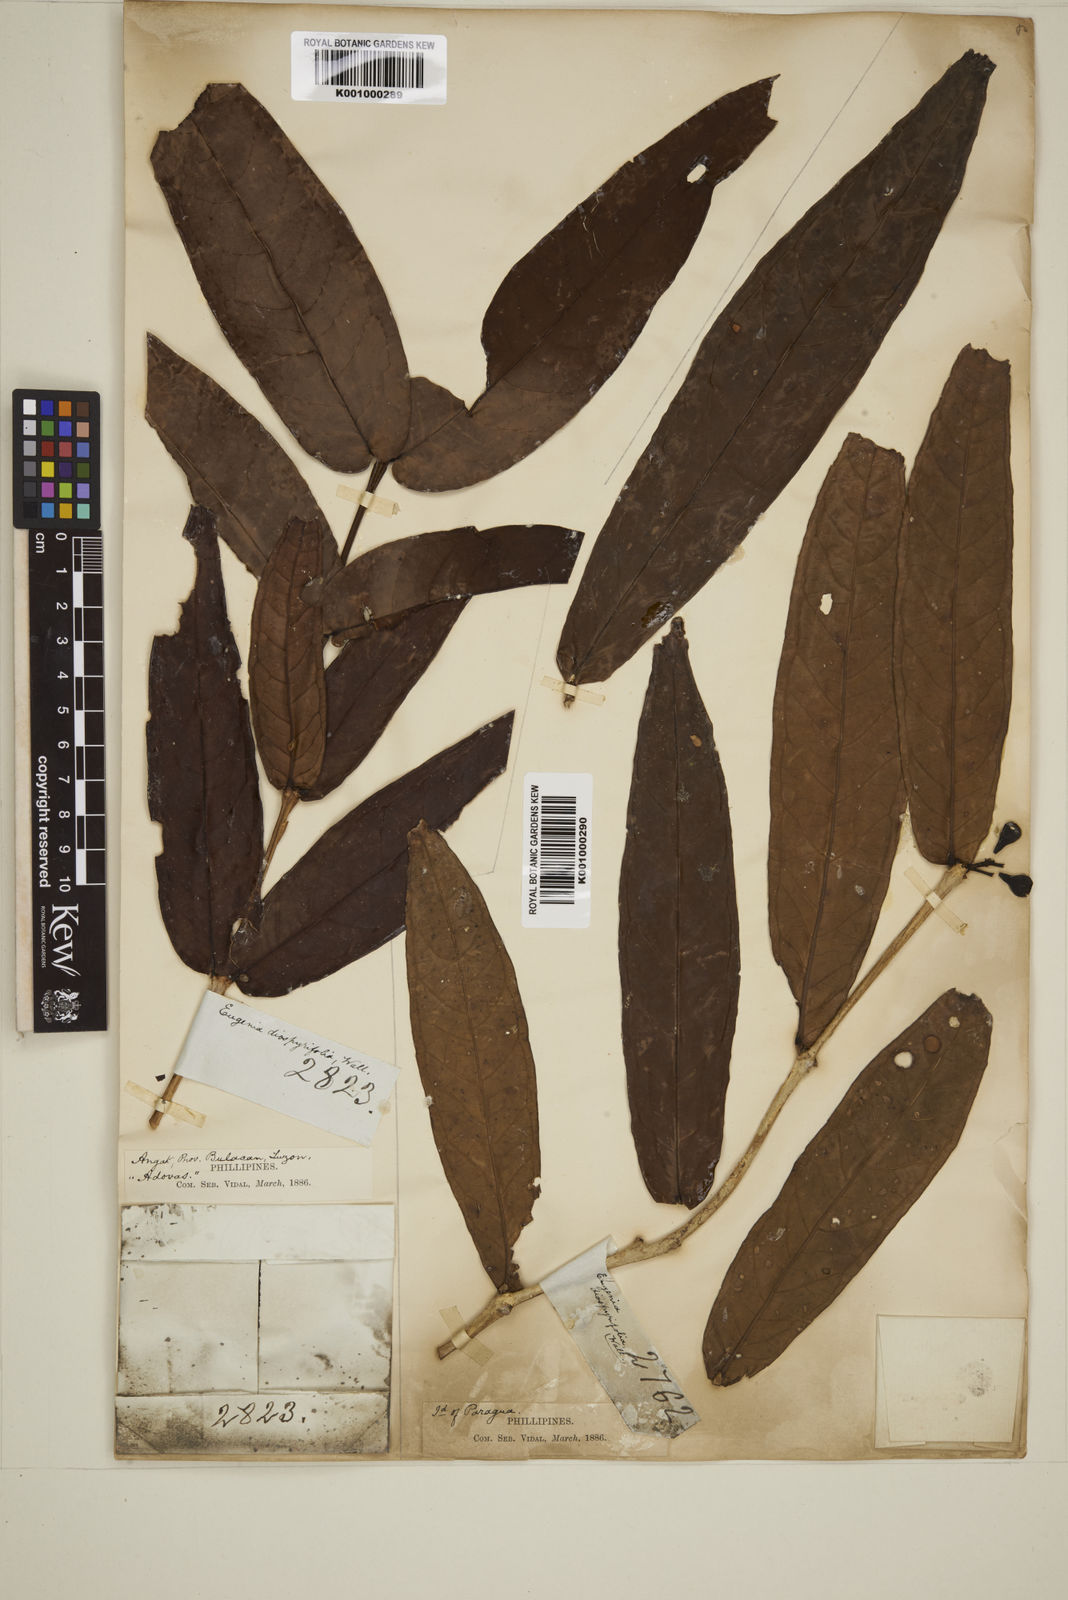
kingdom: Plantae
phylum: Tracheophyta
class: Magnoliopsida
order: Myrtales
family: Myrtaceae
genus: Eugenia
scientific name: Eugenia montalbanica
